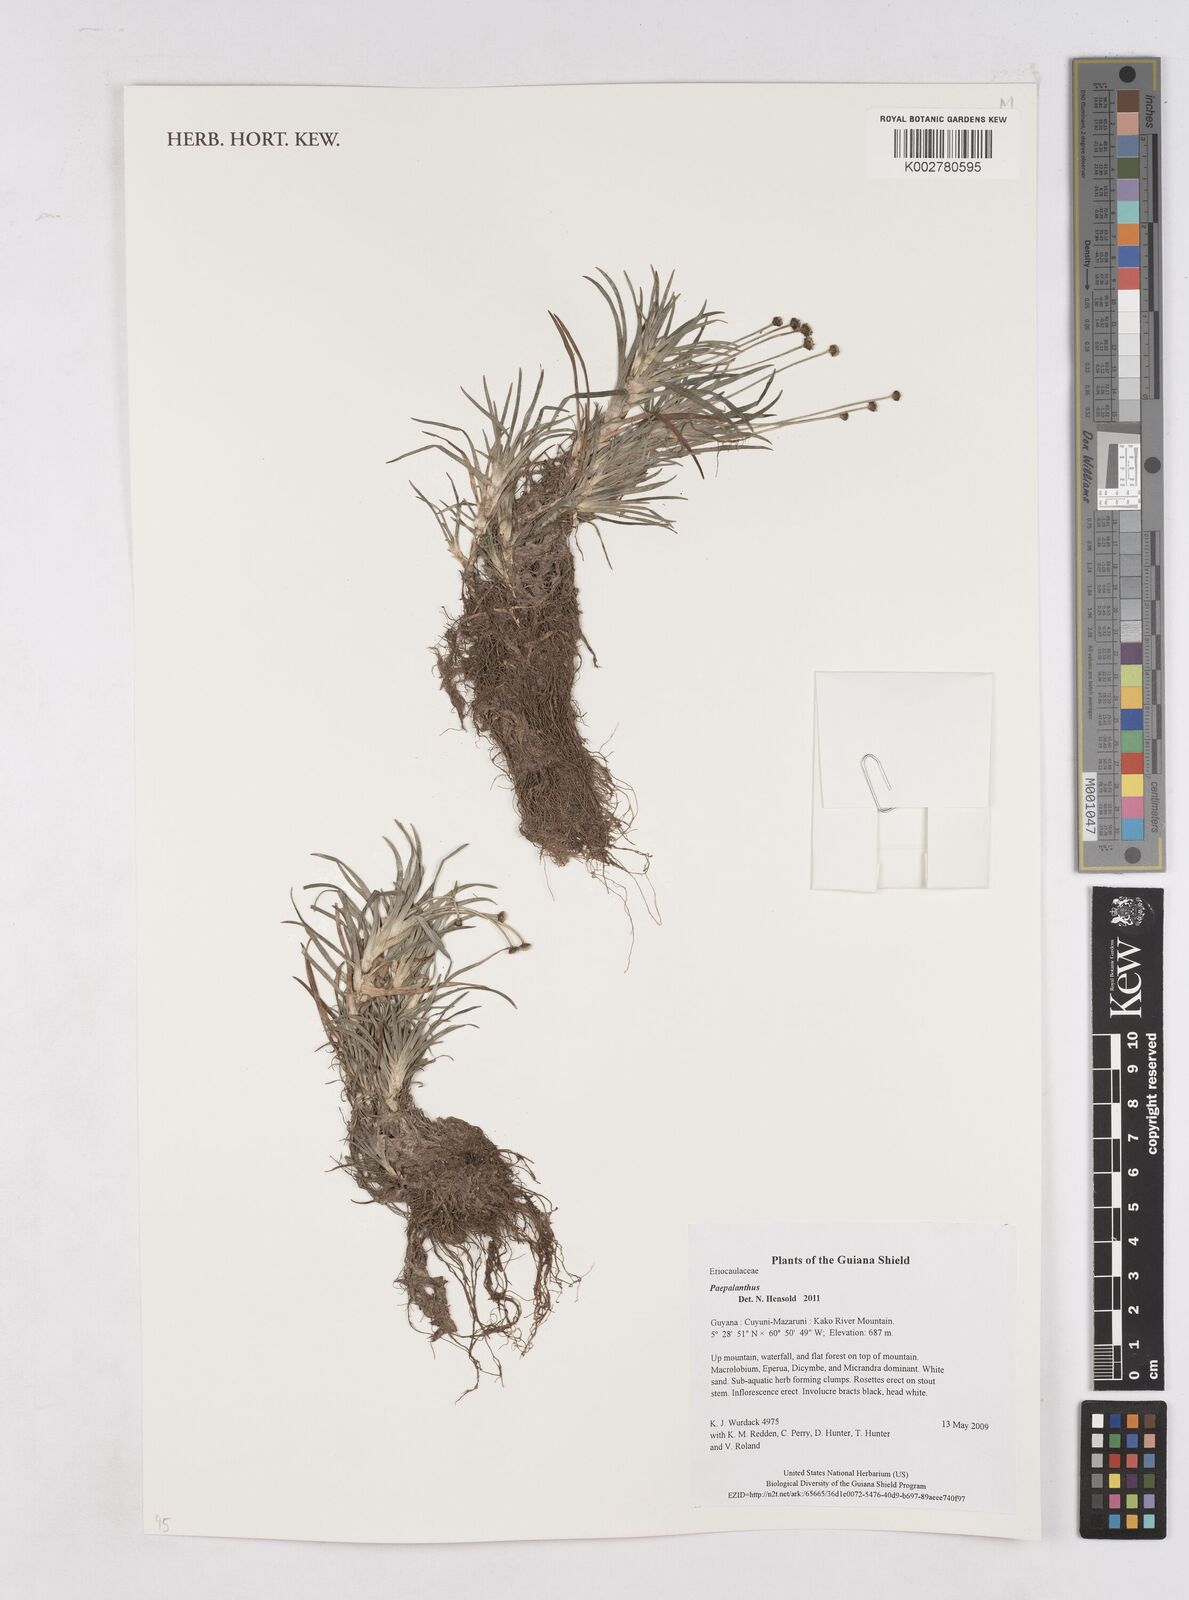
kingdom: Plantae
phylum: Tracheophyta
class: Liliopsida
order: Poales
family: Eriocaulaceae
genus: Paepalanthus
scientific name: Paepalanthus
